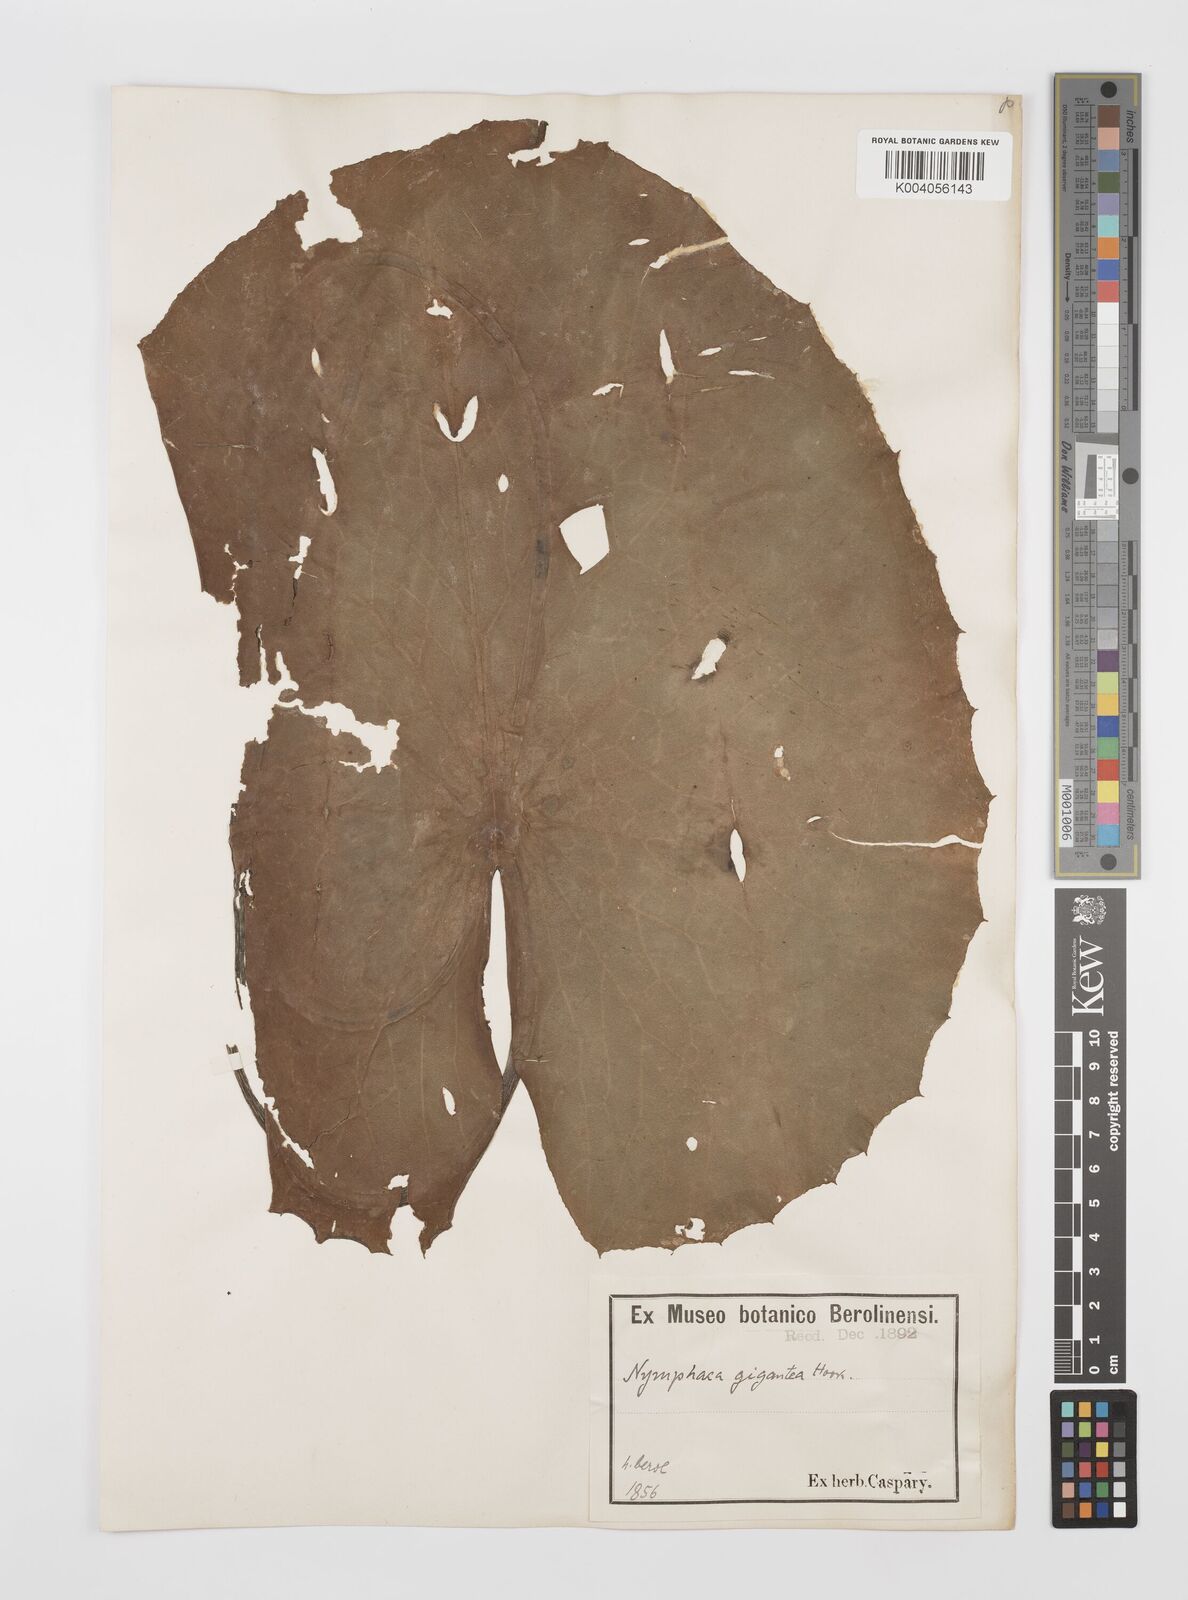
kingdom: Plantae
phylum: Tracheophyta
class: Magnoliopsida
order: Nymphaeales
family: Nymphaeaceae
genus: Nymphaea
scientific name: Nymphaea gigantea
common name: Giant water-lily
